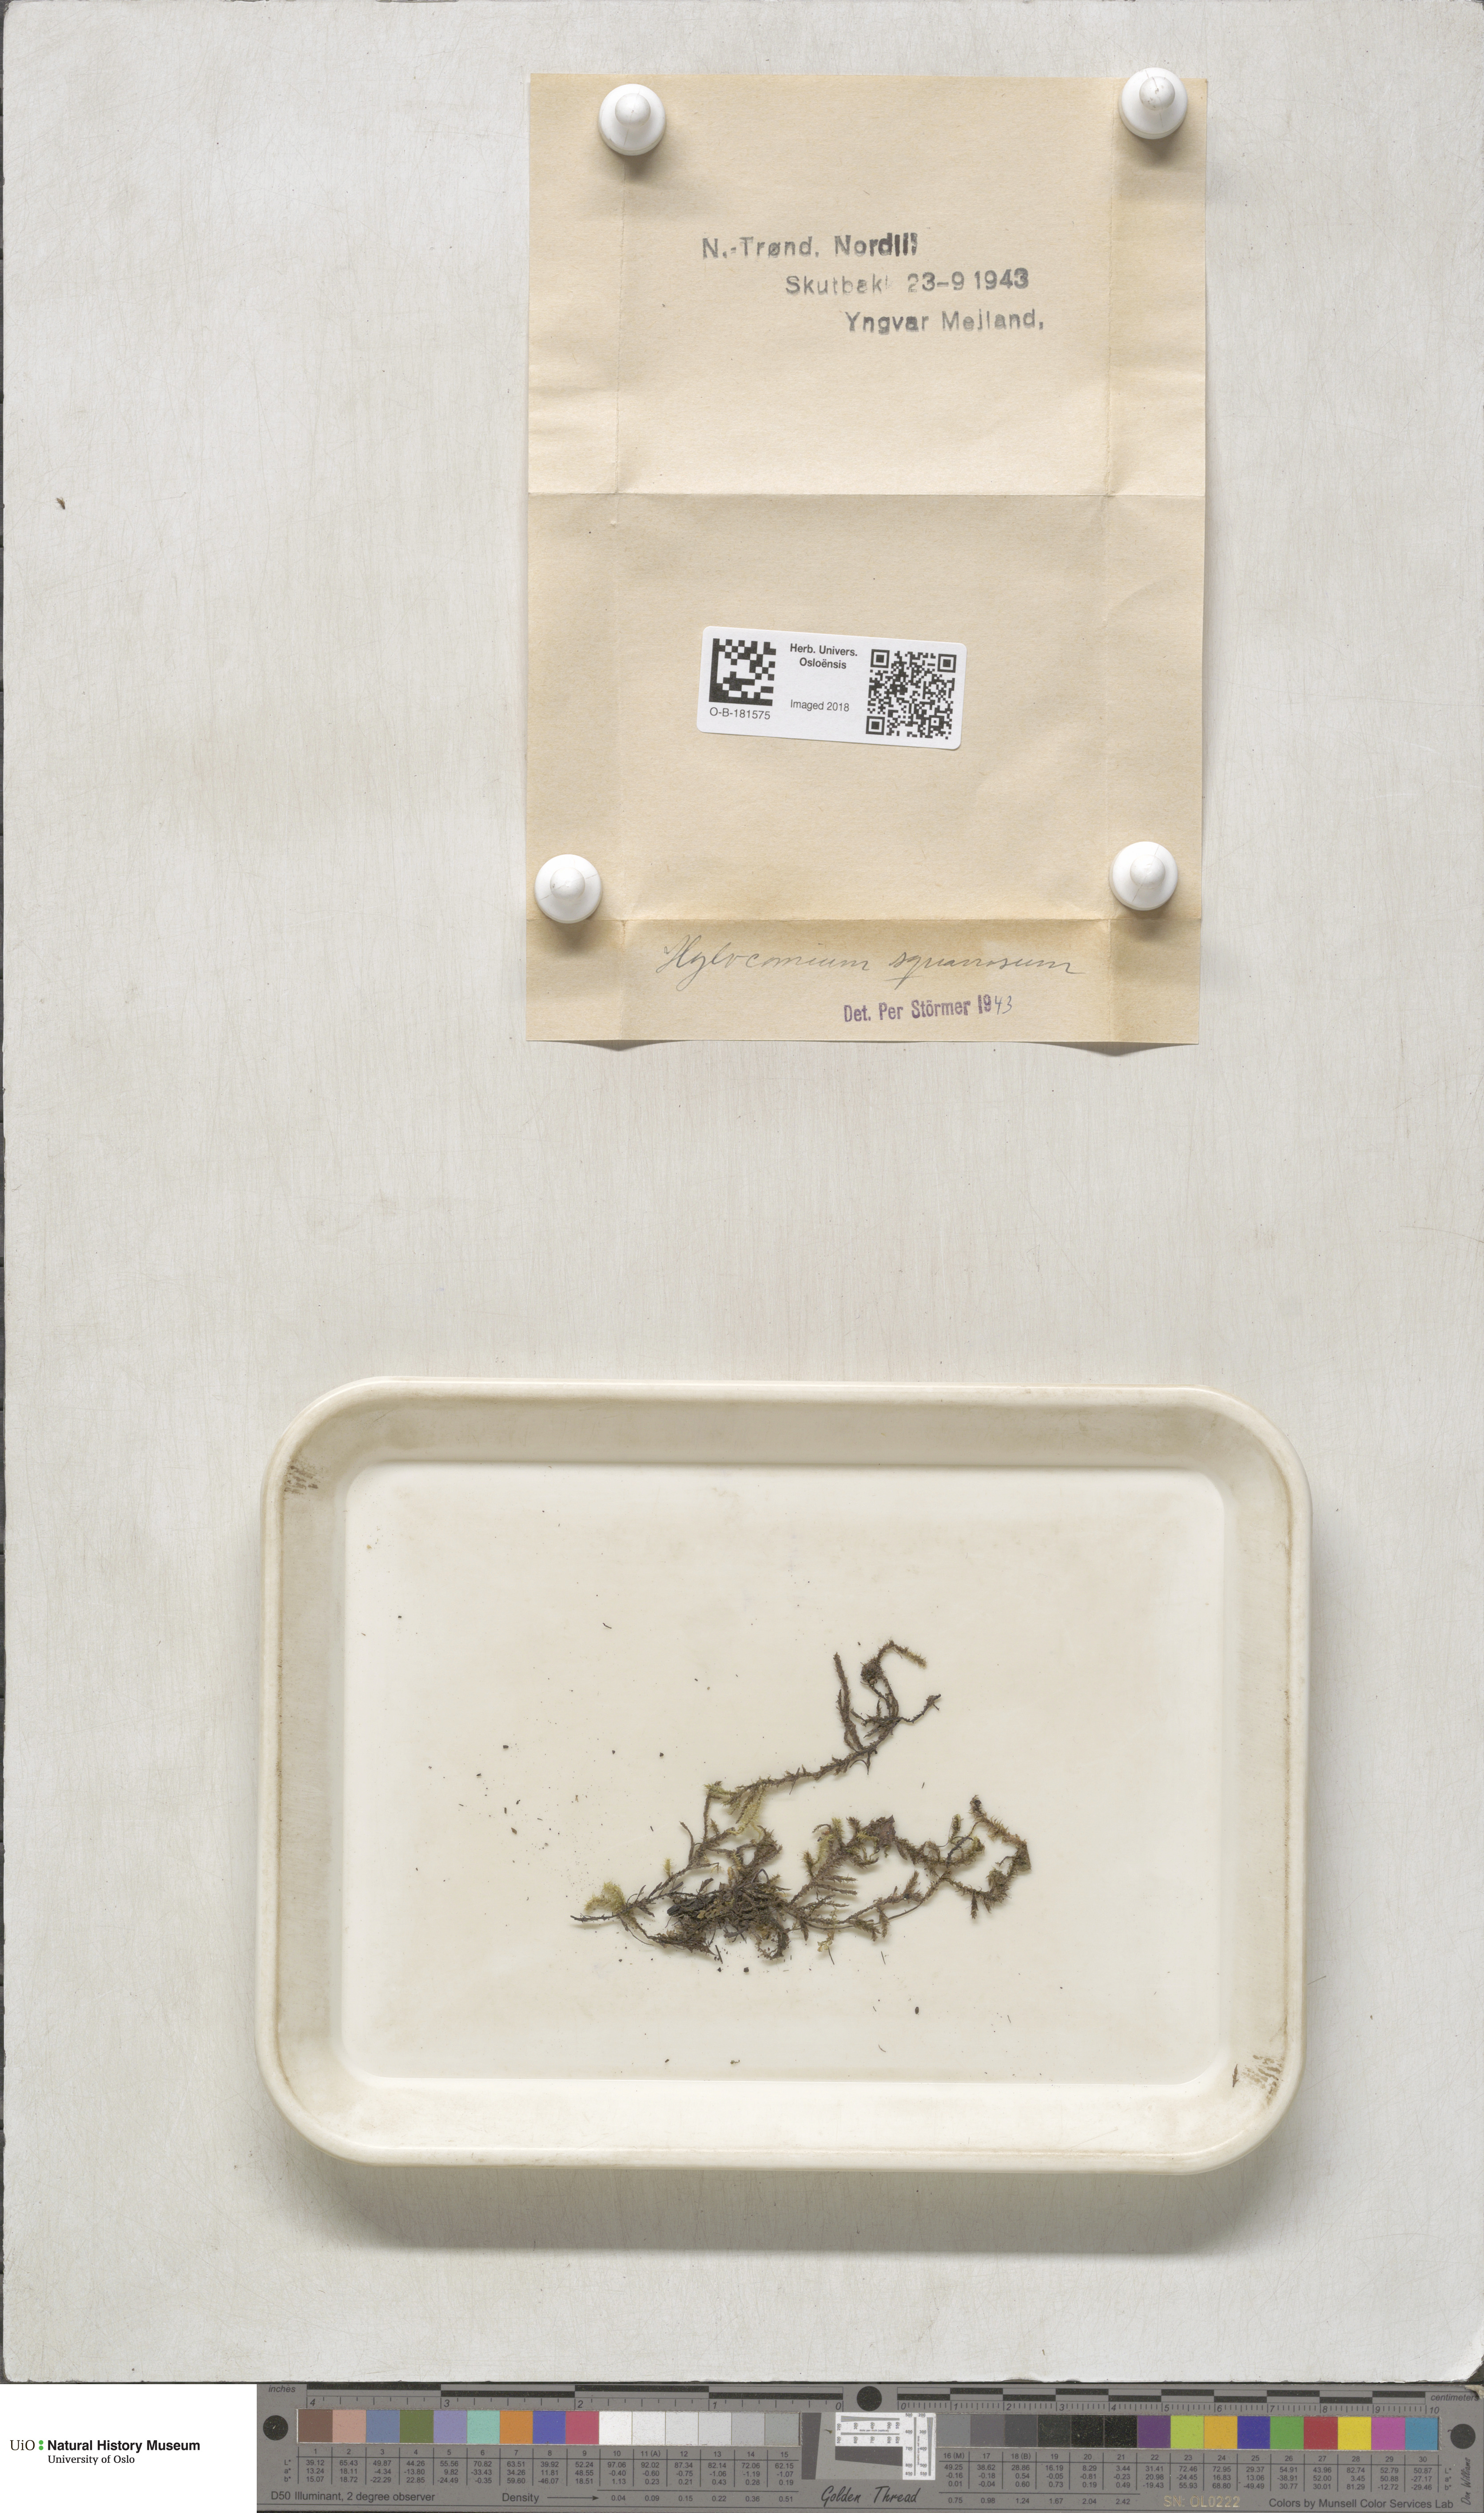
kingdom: Plantae
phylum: Bryophyta
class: Bryopsida
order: Hypnales
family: Hylocomiaceae
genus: Rhytidiadelphus
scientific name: Rhytidiadelphus squarrosus
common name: Springy turf-moss
